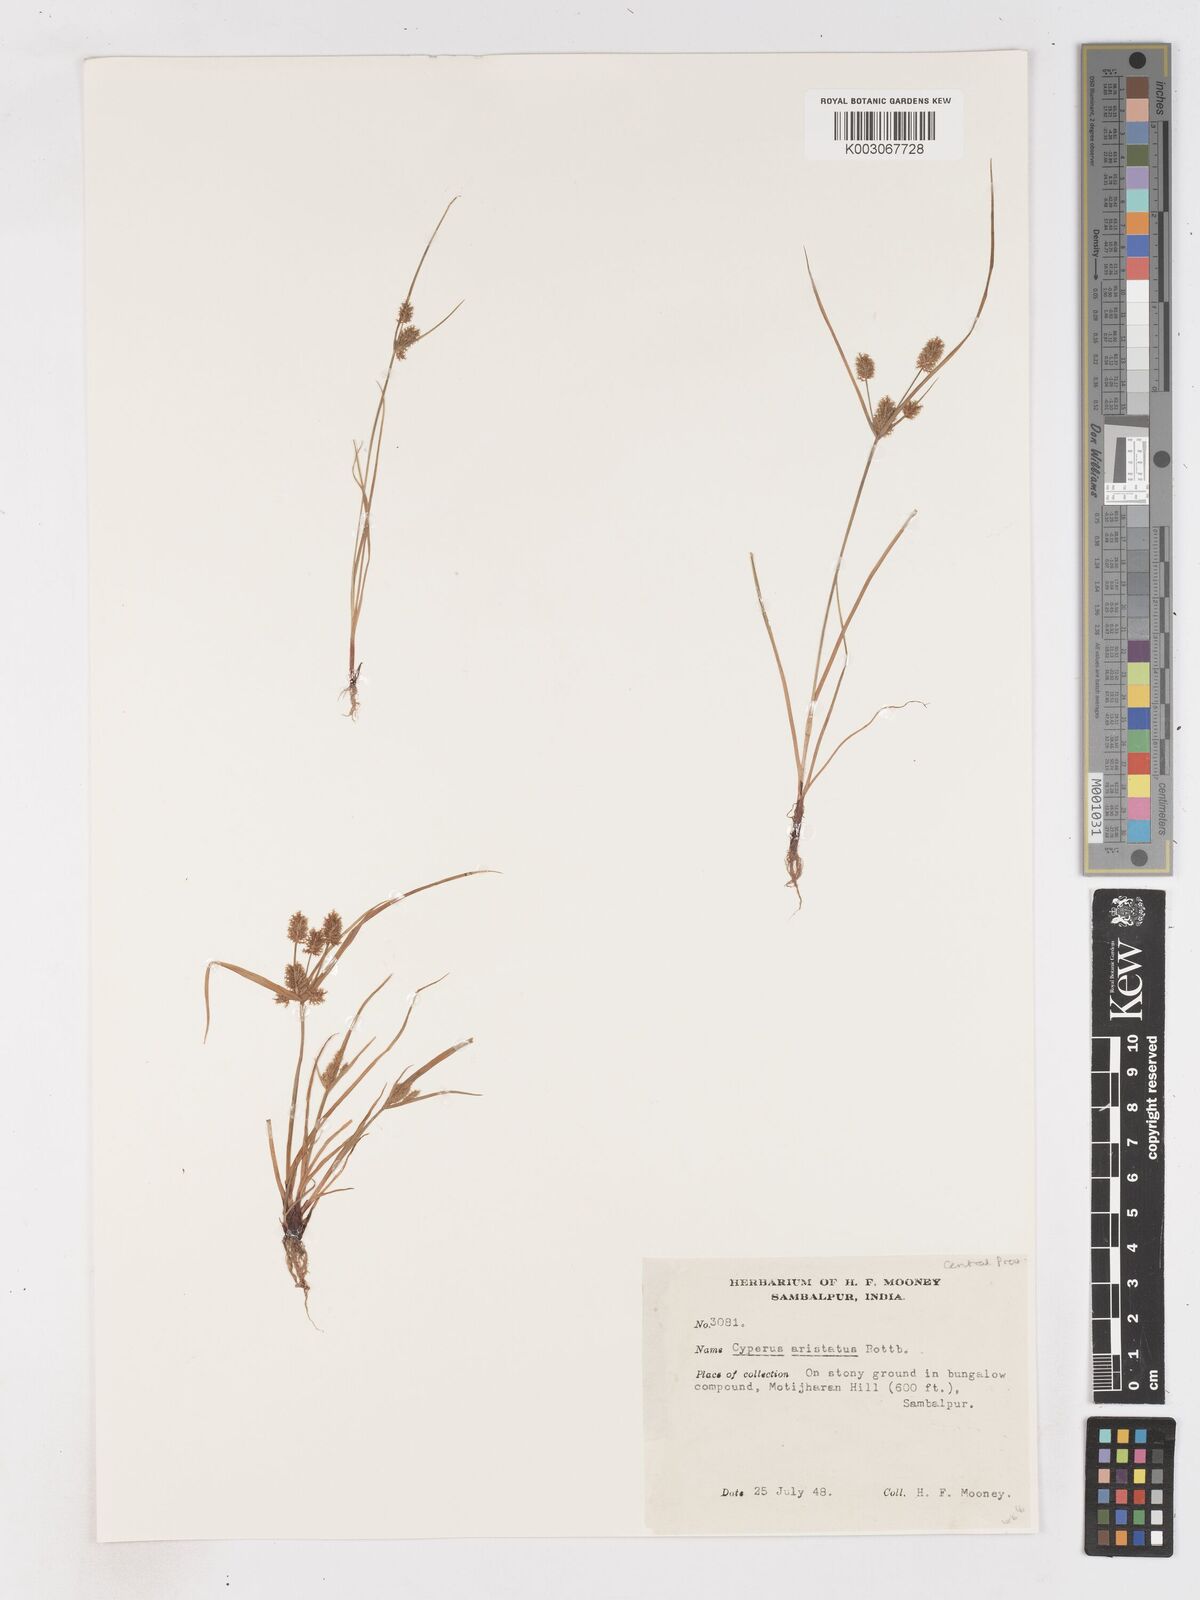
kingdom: Plantae
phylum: Tracheophyta
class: Liliopsida
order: Poales
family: Cyperaceae
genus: Cyperus
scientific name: Cyperus squarrosus
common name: Awned cyperus
